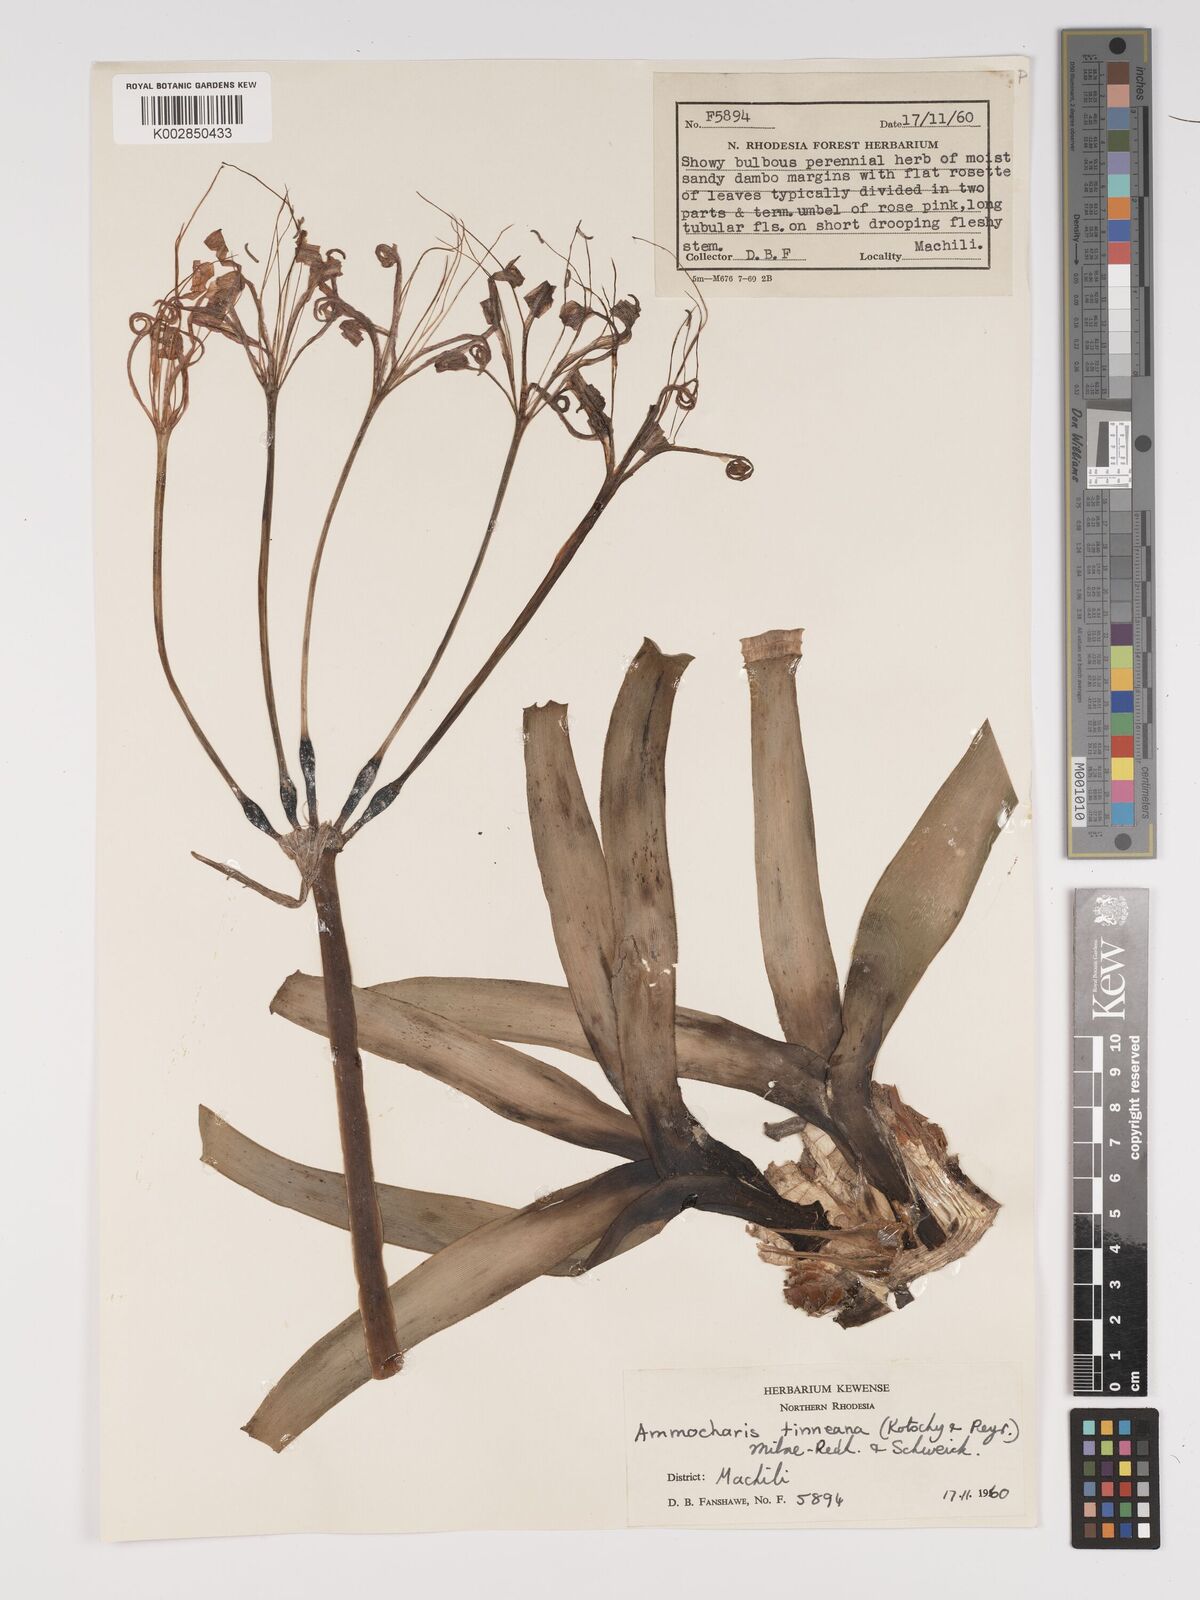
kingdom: Plantae
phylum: Tracheophyta
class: Liliopsida
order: Asparagales
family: Amaryllidaceae
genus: Ammocharis
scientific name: Ammocharis tinneana
